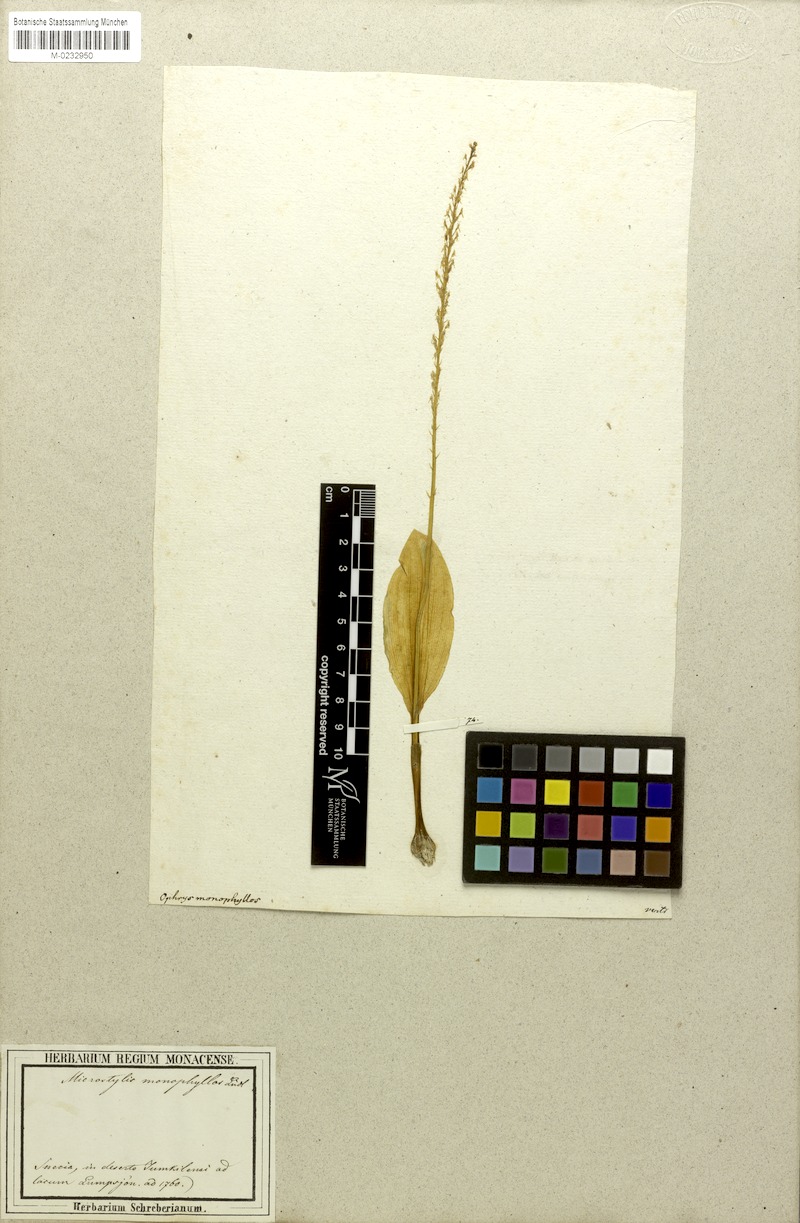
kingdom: Plantae
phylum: Tracheophyta
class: Liliopsida
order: Asparagales
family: Orchidaceae
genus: Malaxis
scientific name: Malaxis monophyllos
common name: White adder's-mouth
